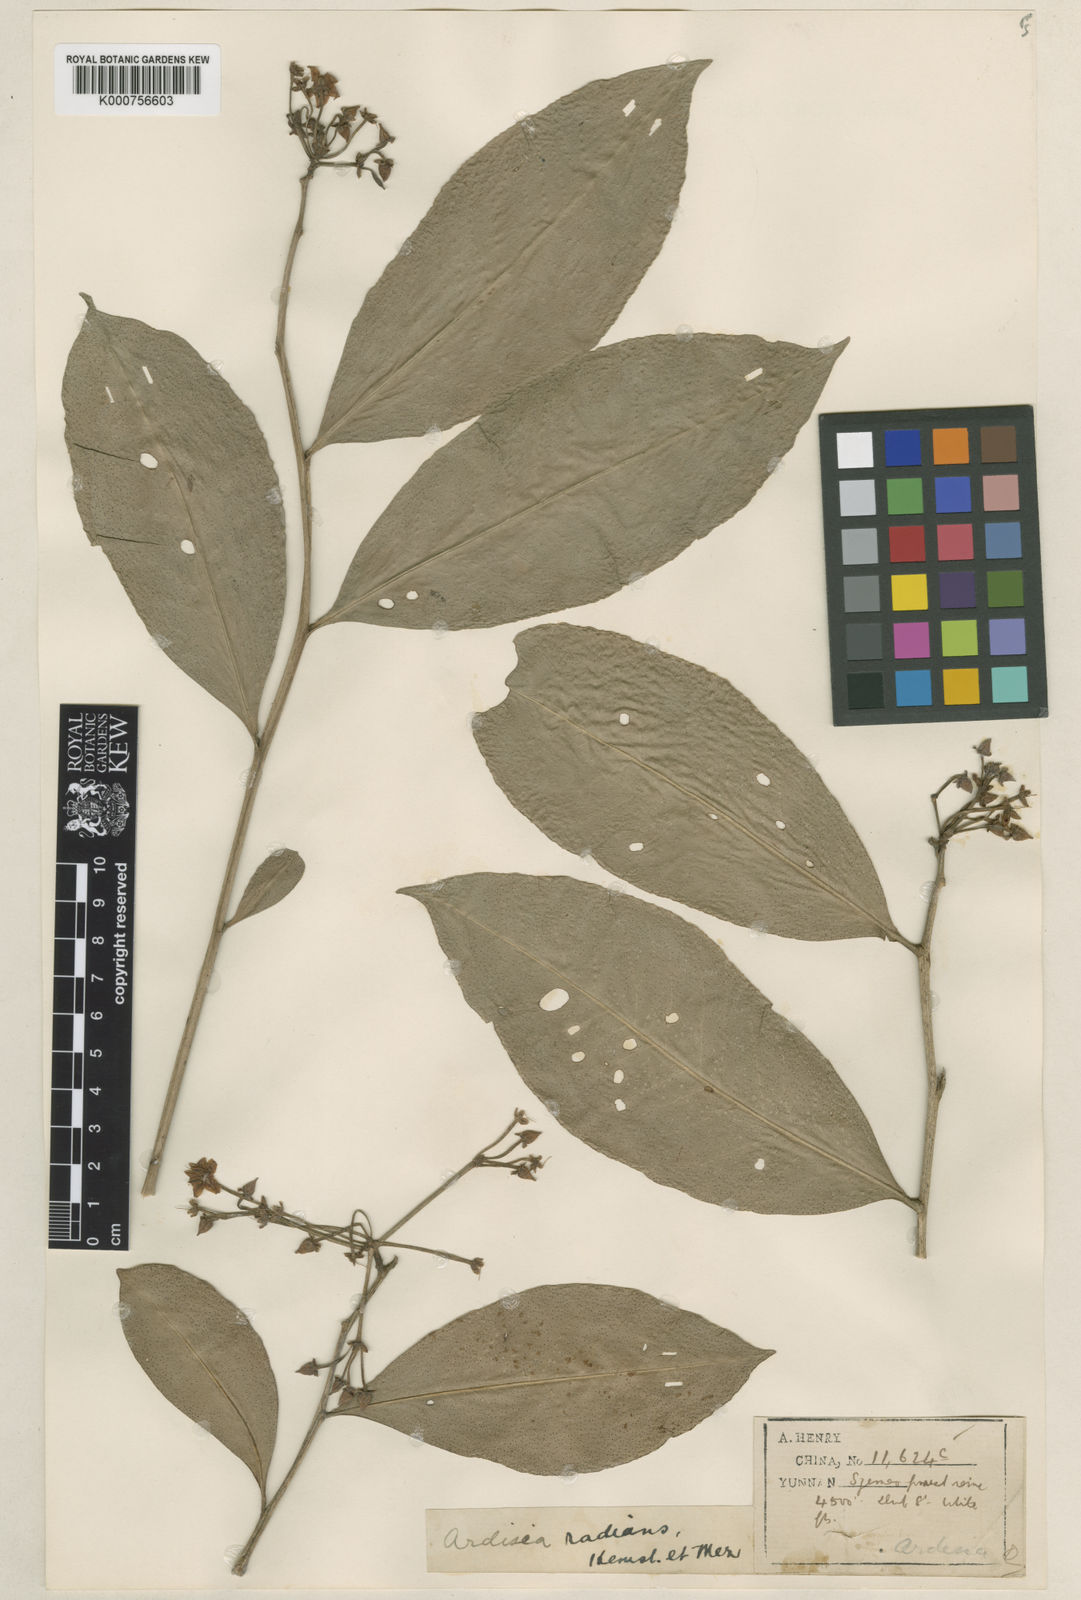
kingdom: Plantae
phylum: Tracheophyta
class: Magnoliopsida
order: Ericales
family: Primulaceae
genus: Ardisia
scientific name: Ardisia polysticta
